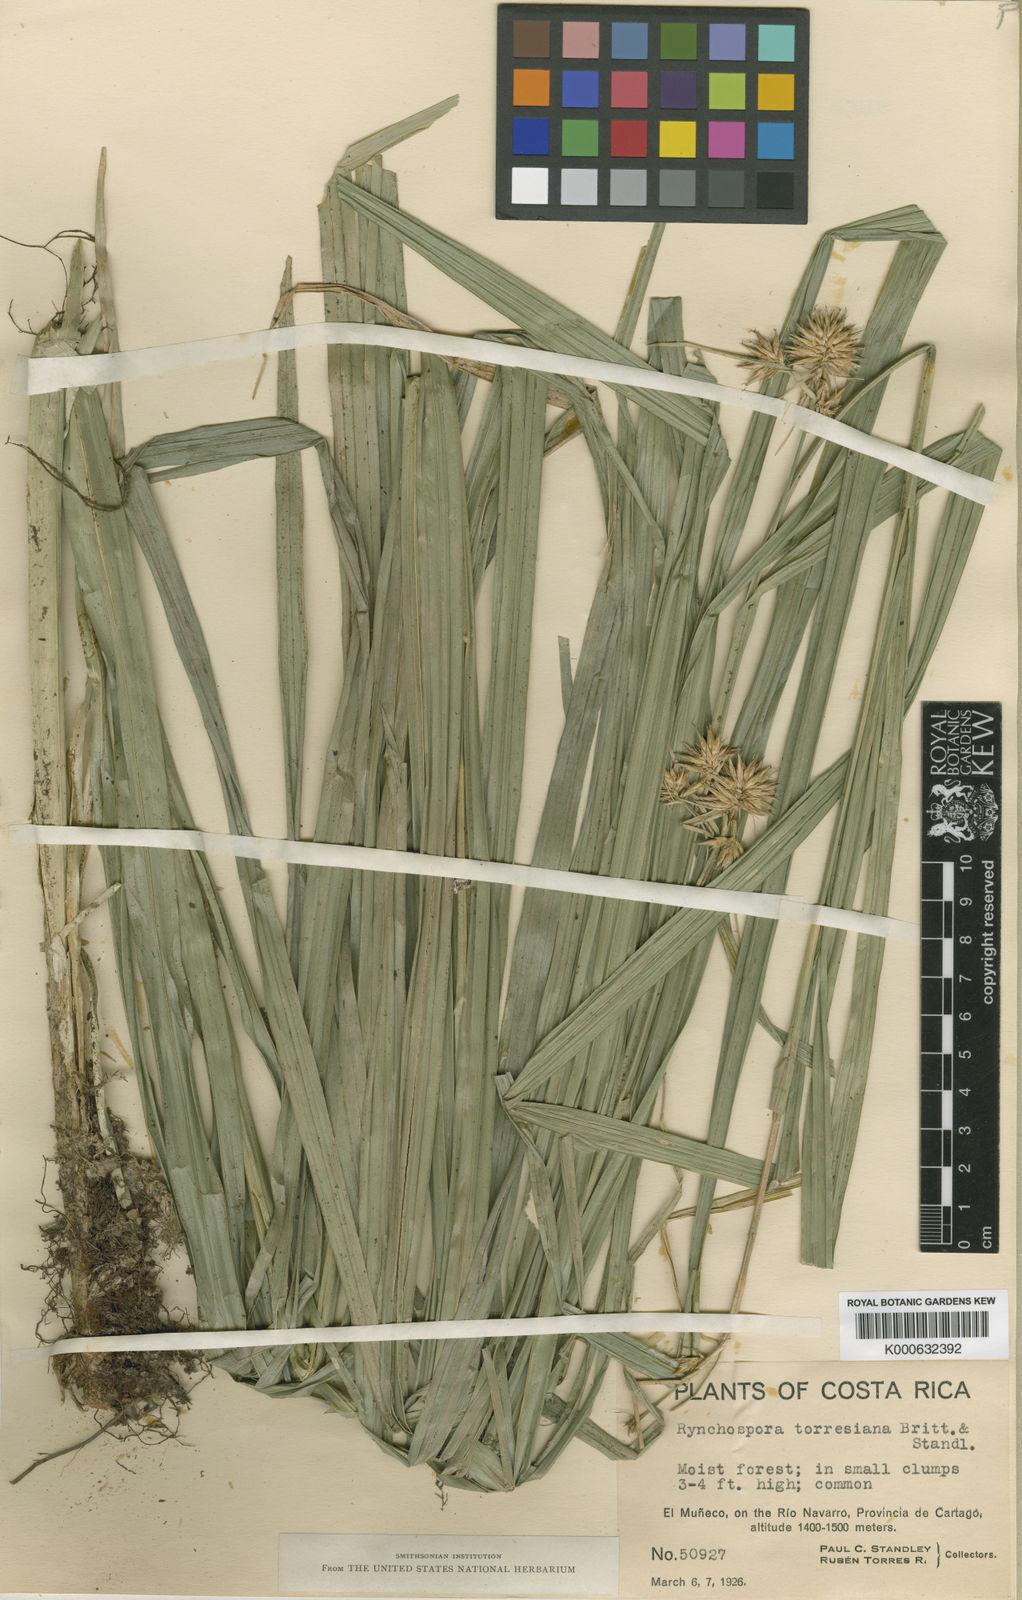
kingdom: Plantae
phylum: Tracheophyta
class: Liliopsida
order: Poales
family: Cyperaceae
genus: Rhynchospora
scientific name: Rhynchospora torresiana
